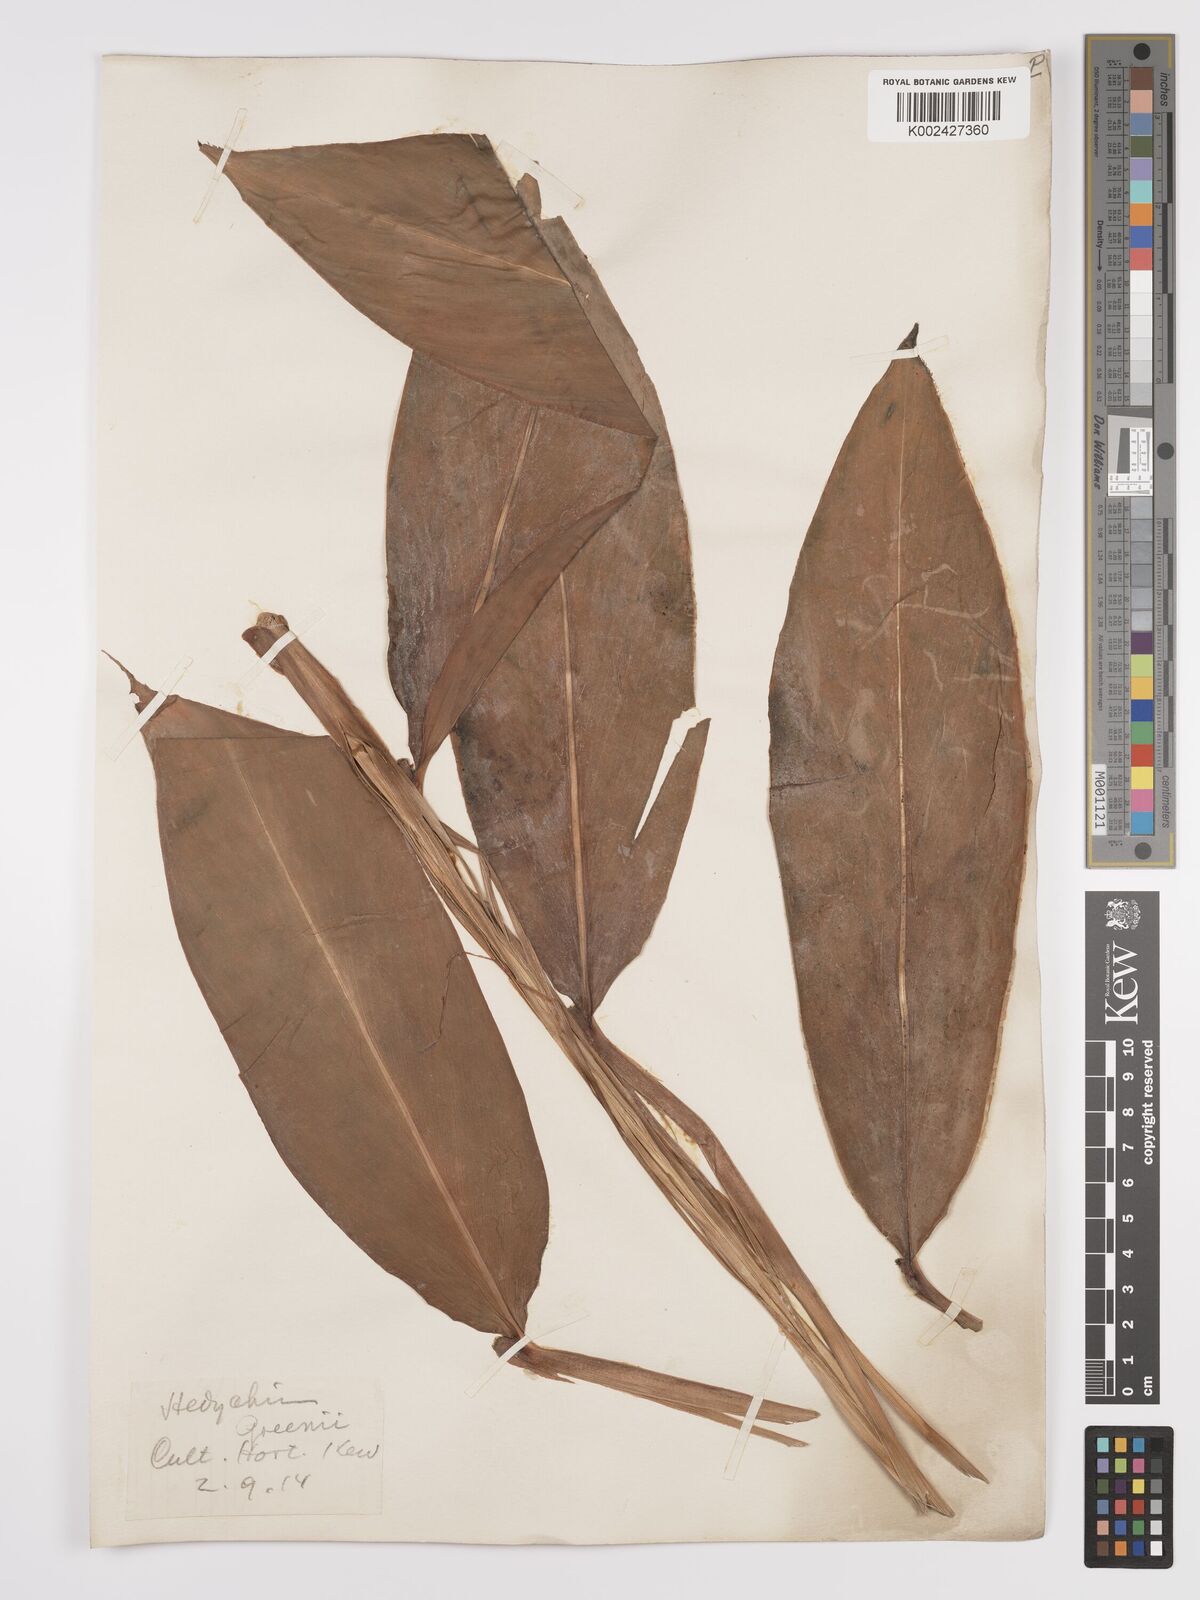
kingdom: Plantae
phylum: Tracheophyta
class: Liliopsida
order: Zingiberales
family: Zingiberaceae
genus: Hedychium
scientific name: Hedychium greenii
